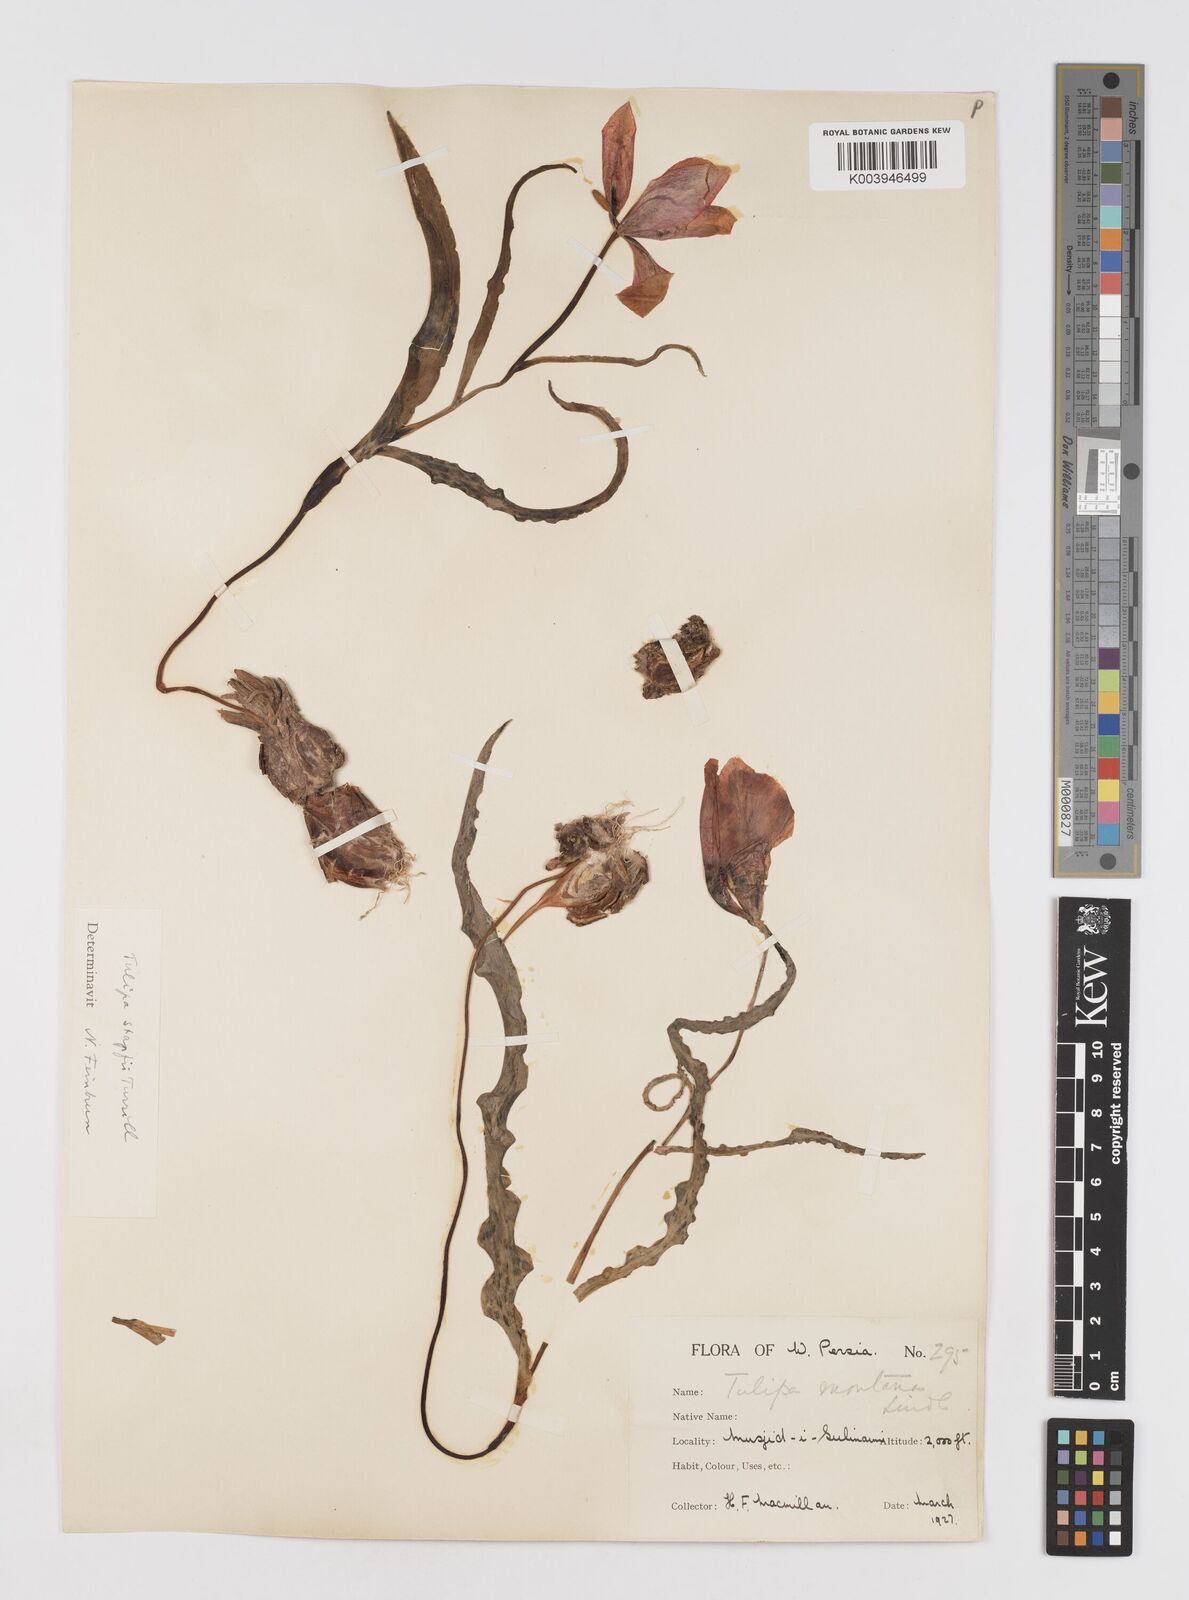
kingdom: Plantae
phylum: Tracheophyta
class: Liliopsida
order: Liliales
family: Liliaceae
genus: Tulipa
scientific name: Tulipa systola
